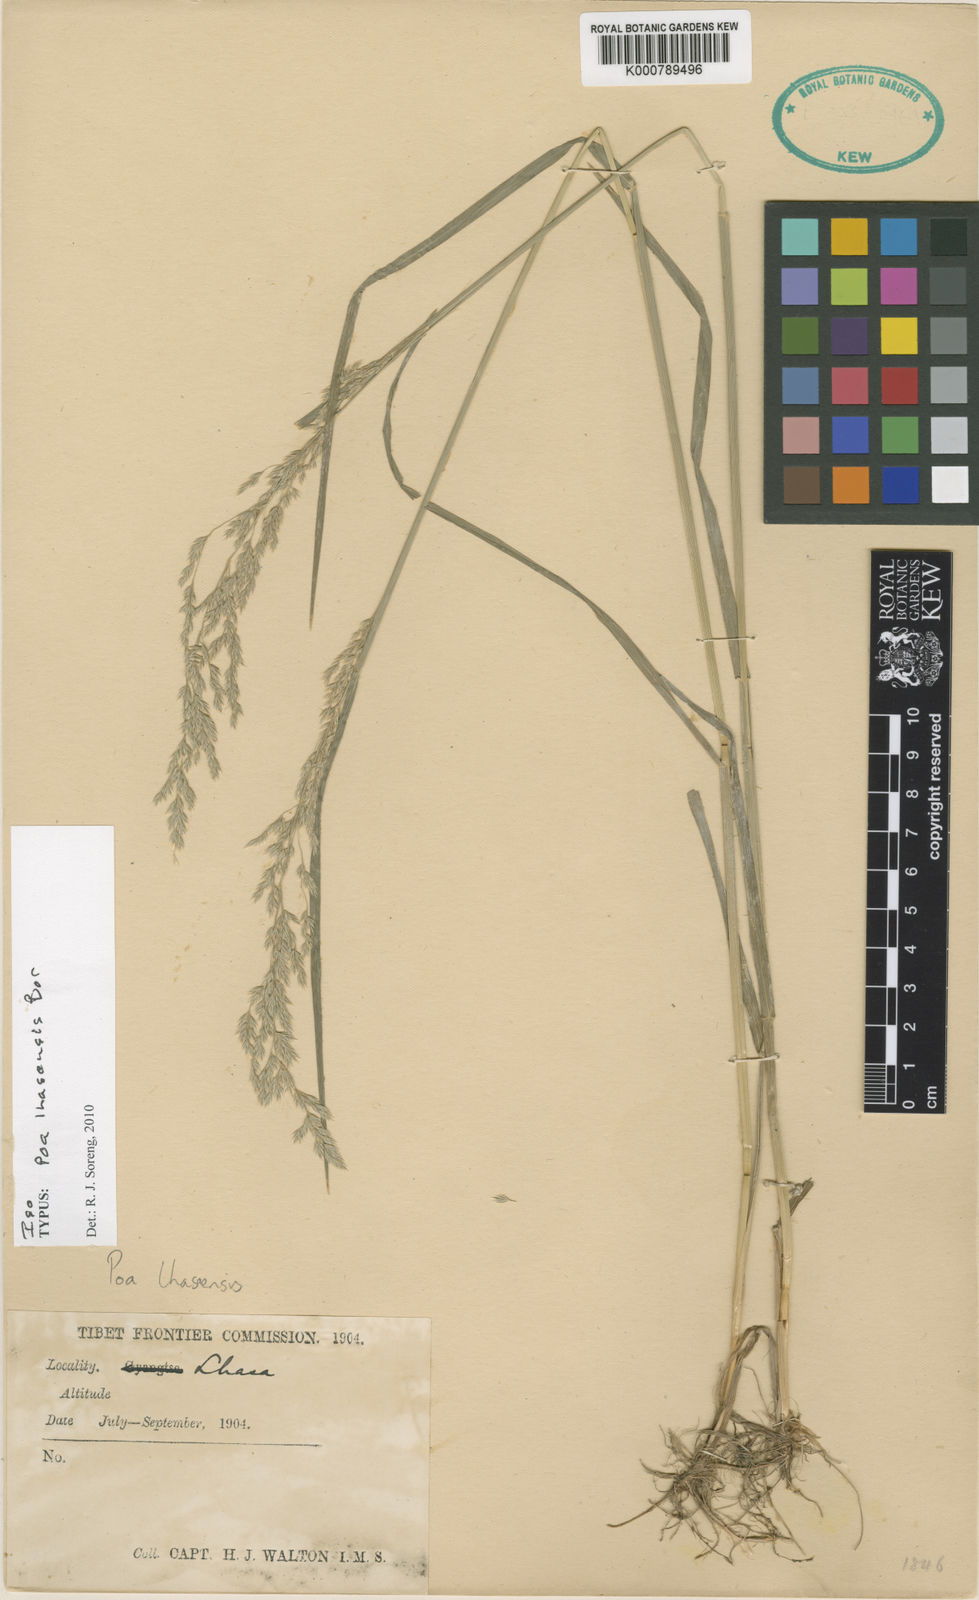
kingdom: Plantae
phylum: Tracheophyta
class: Liliopsida
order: Poales
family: Poaceae
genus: Poa
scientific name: Poa lhasaensis
